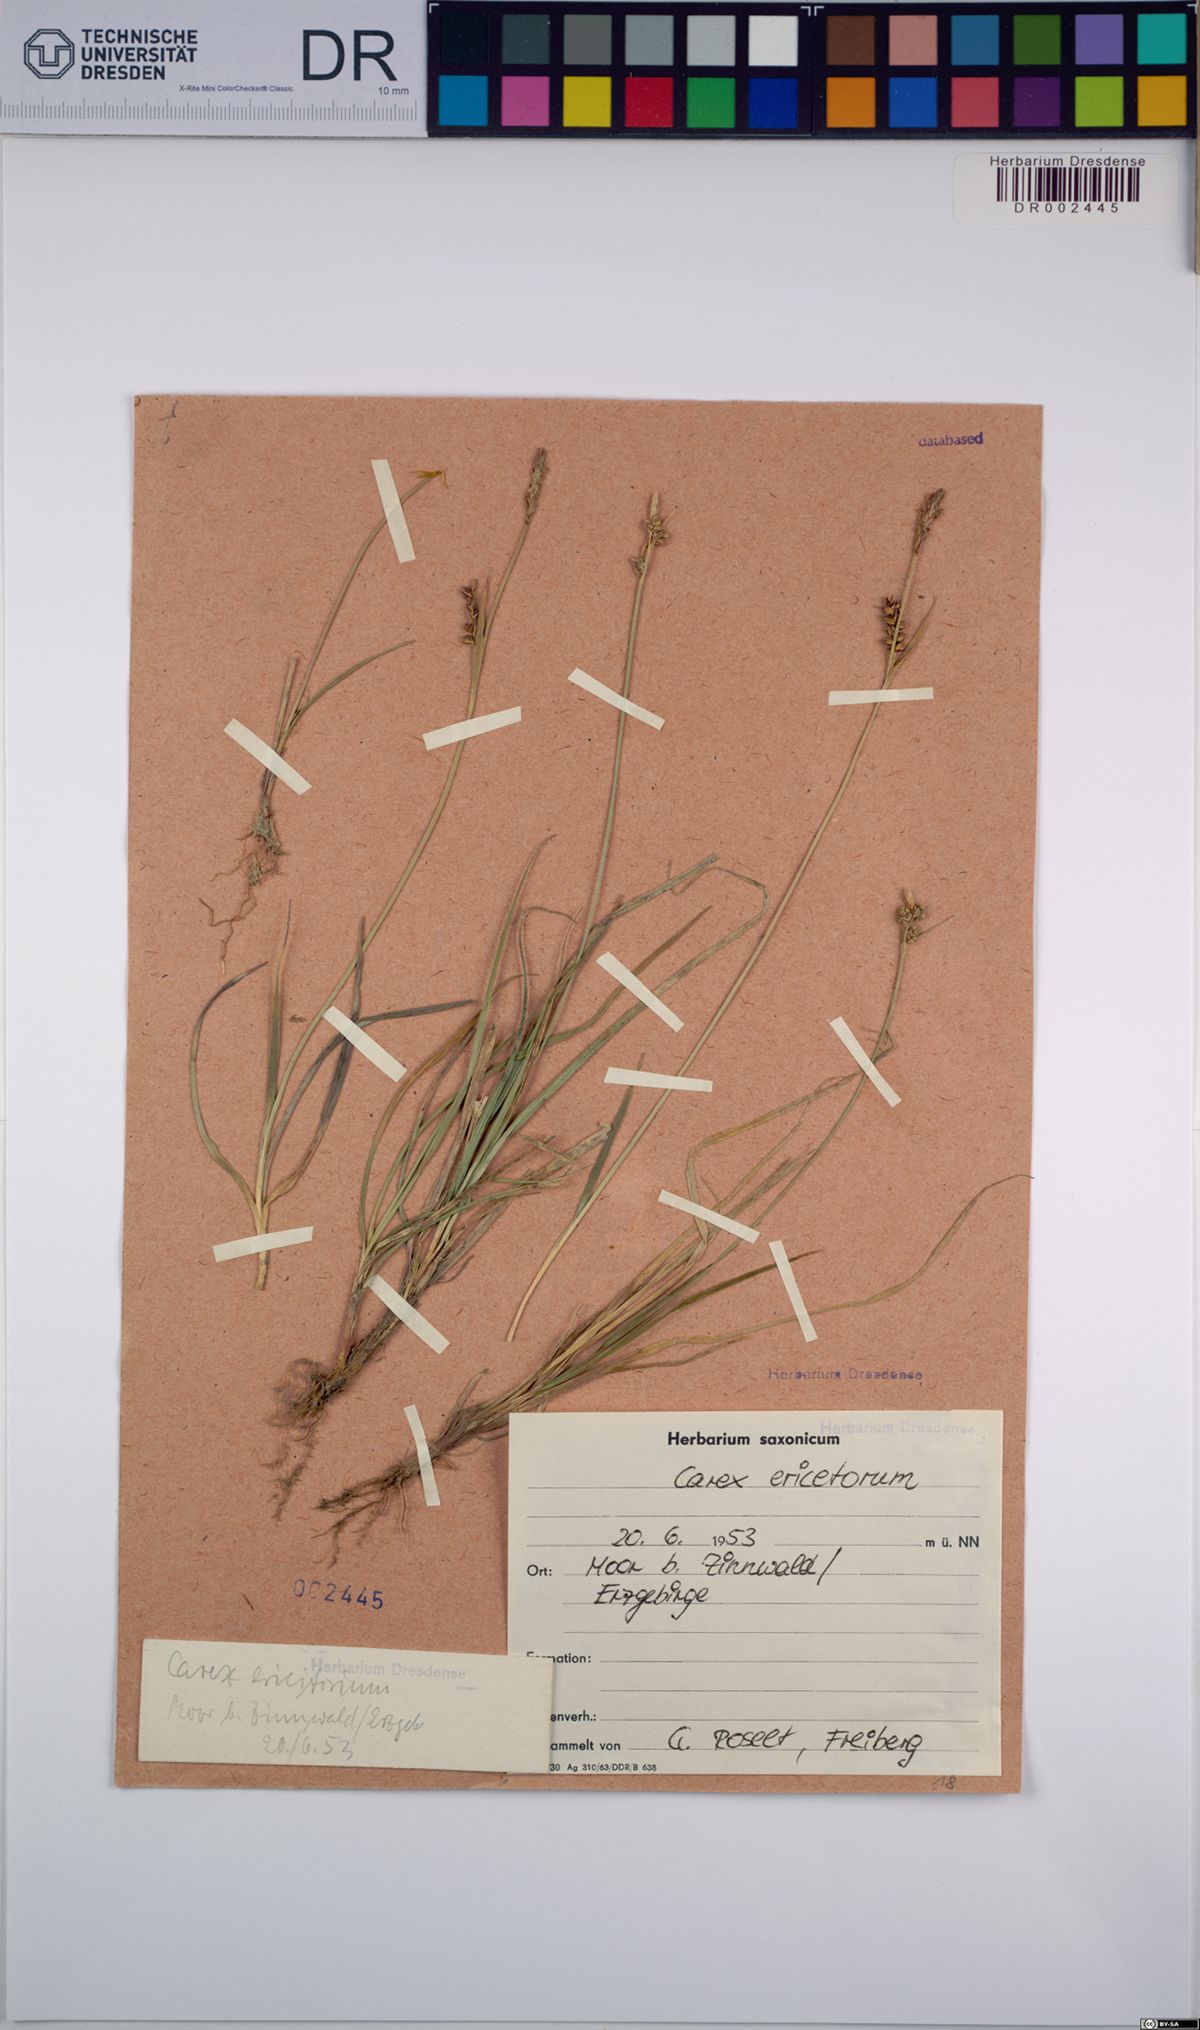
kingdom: Plantae
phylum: Tracheophyta
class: Liliopsida
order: Poales
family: Cyperaceae
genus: Carex
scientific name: Carex ericetorum
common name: Rare spring-sedge
